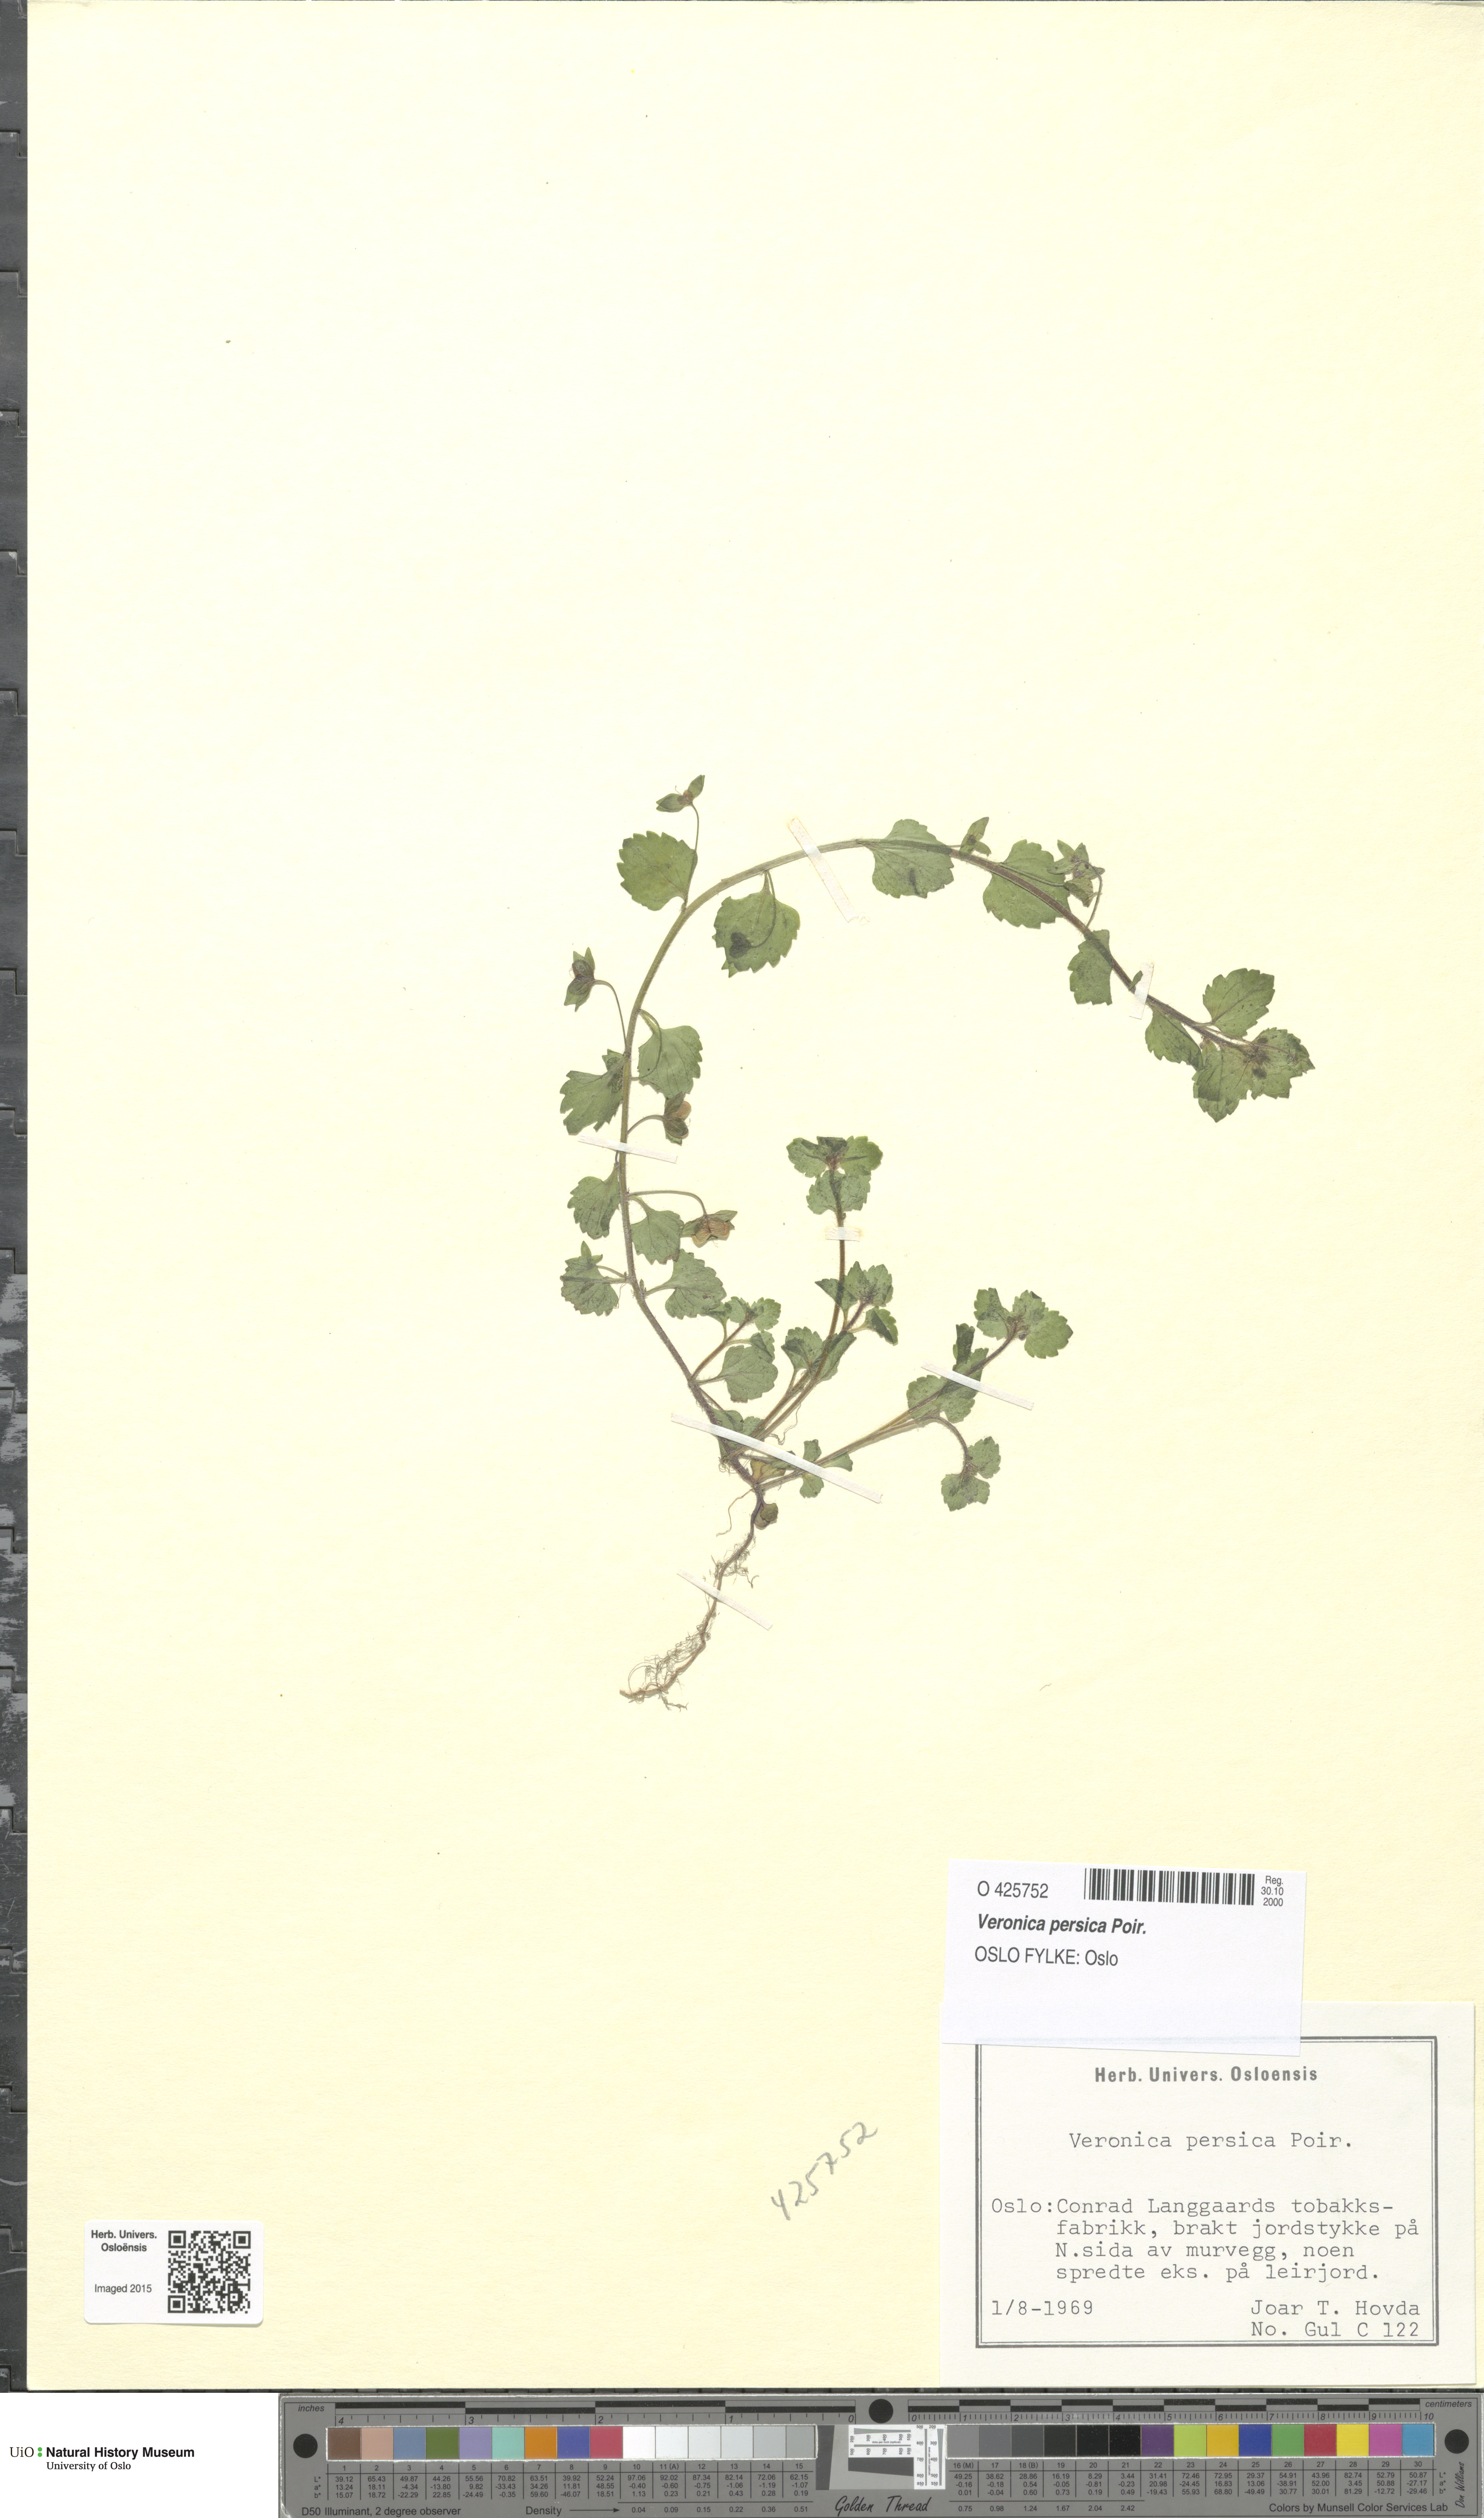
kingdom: Plantae
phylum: Tracheophyta
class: Magnoliopsida
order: Lamiales
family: Plantaginaceae
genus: Veronica
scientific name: Veronica persica
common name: Common field-speedwell
